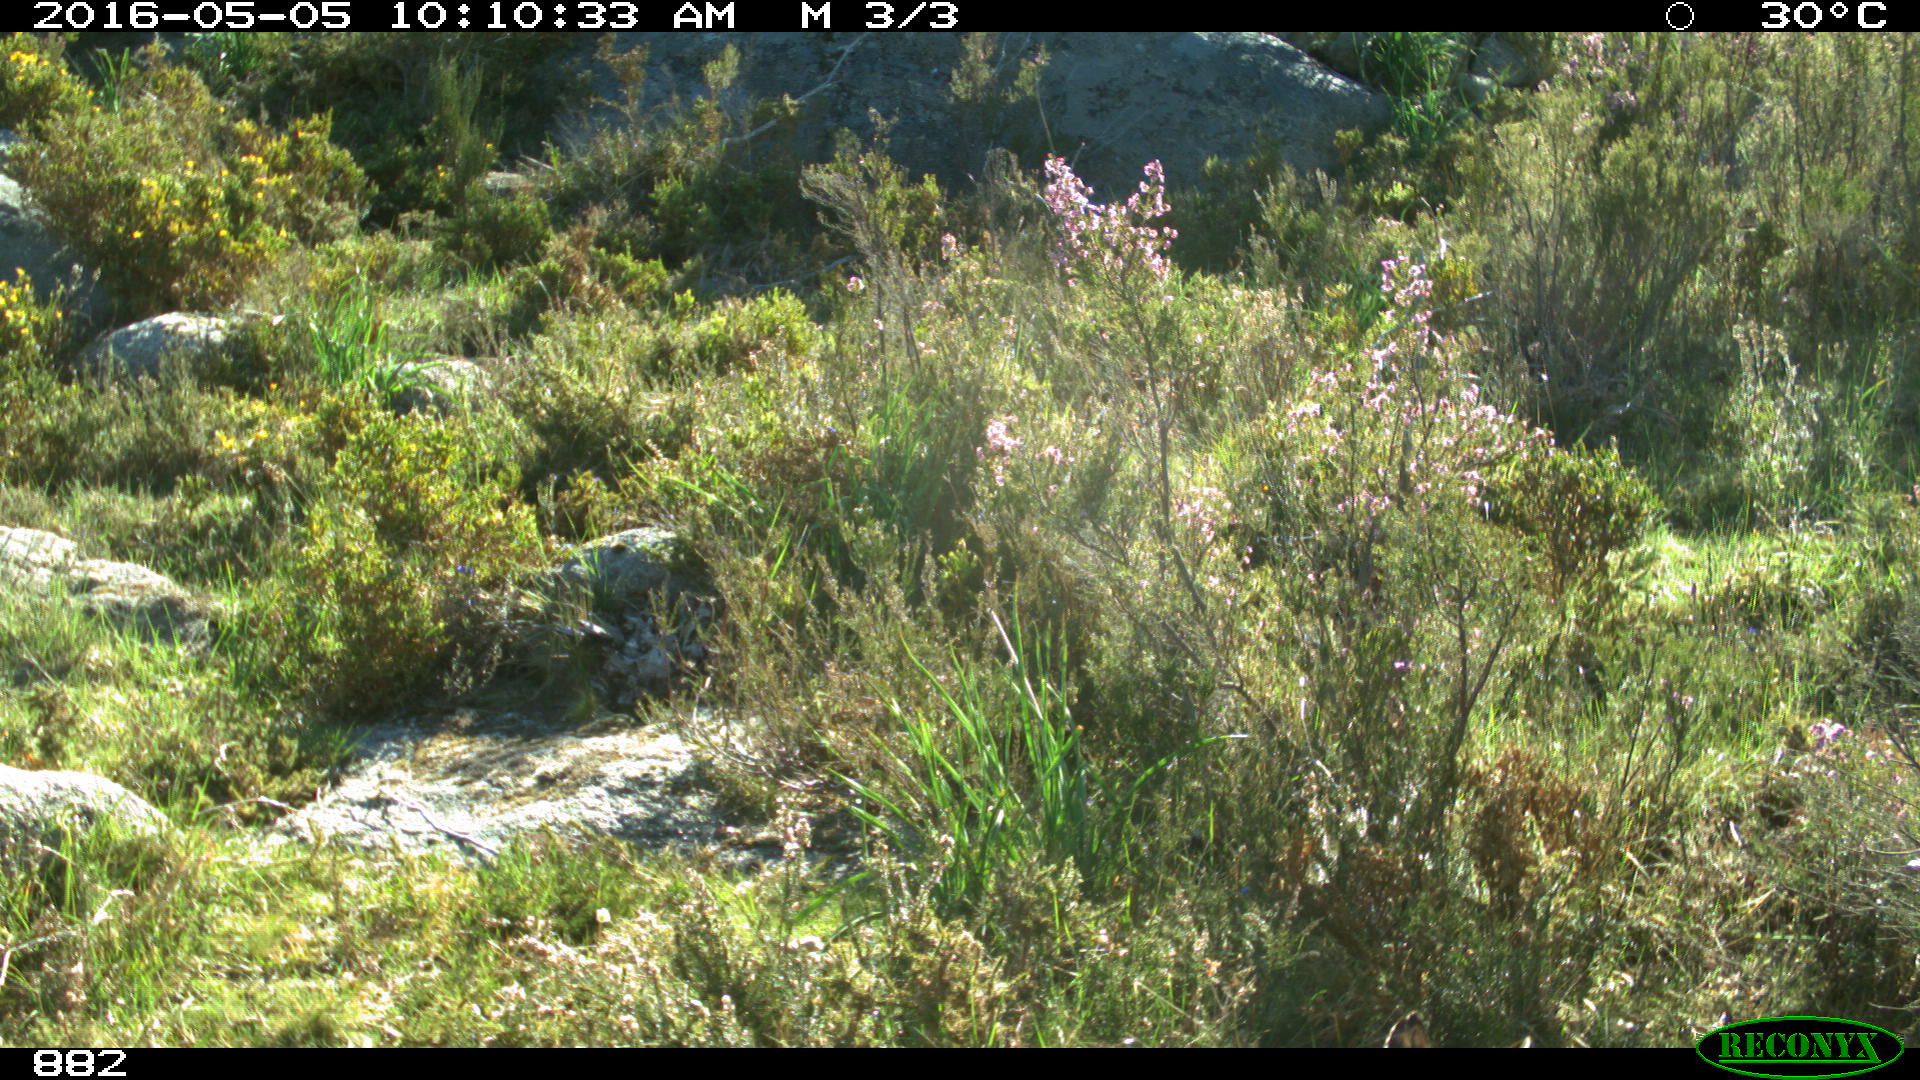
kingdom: Animalia
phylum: Chordata
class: Mammalia
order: Carnivora
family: Canidae
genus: Vulpes
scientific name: Vulpes vulpes
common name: Red fox
